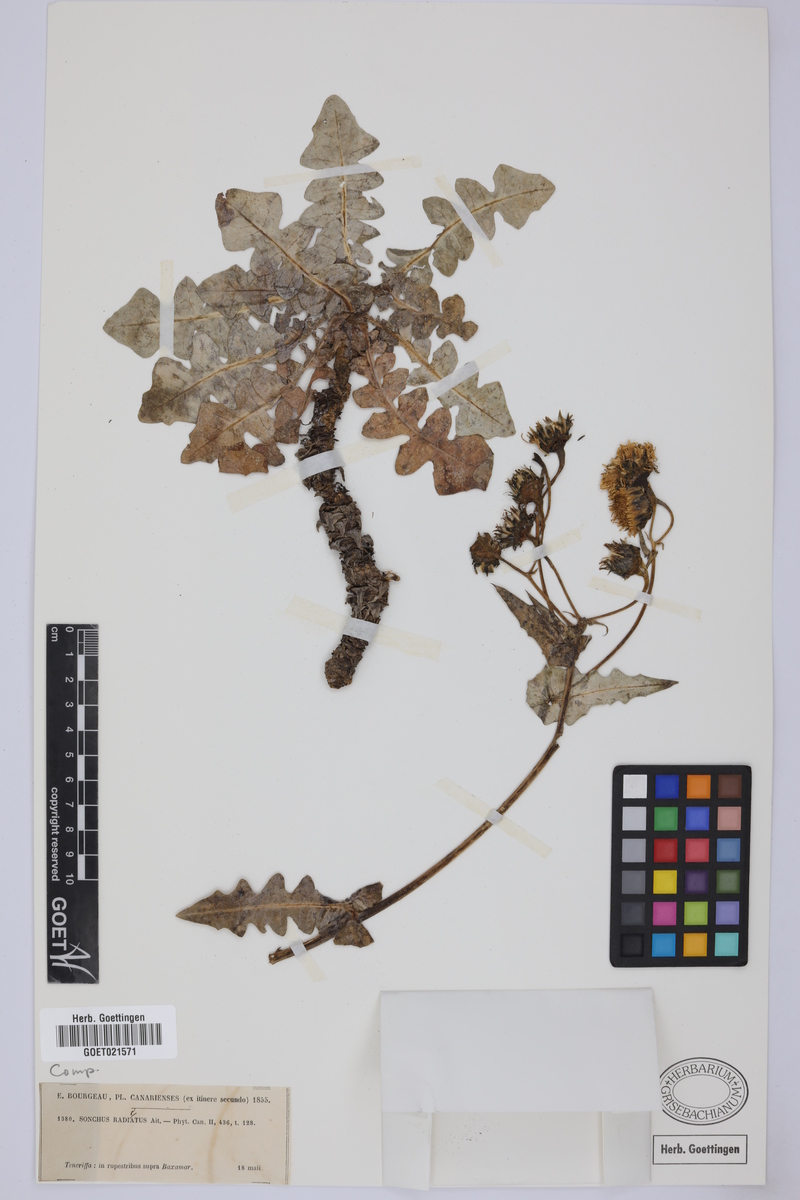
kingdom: Plantae
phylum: Tracheophyta
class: Magnoliopsida
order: Asterales
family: Asteraceae
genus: Sonchus
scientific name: Sonchus radicatus
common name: Long-rooted sow-thistle
